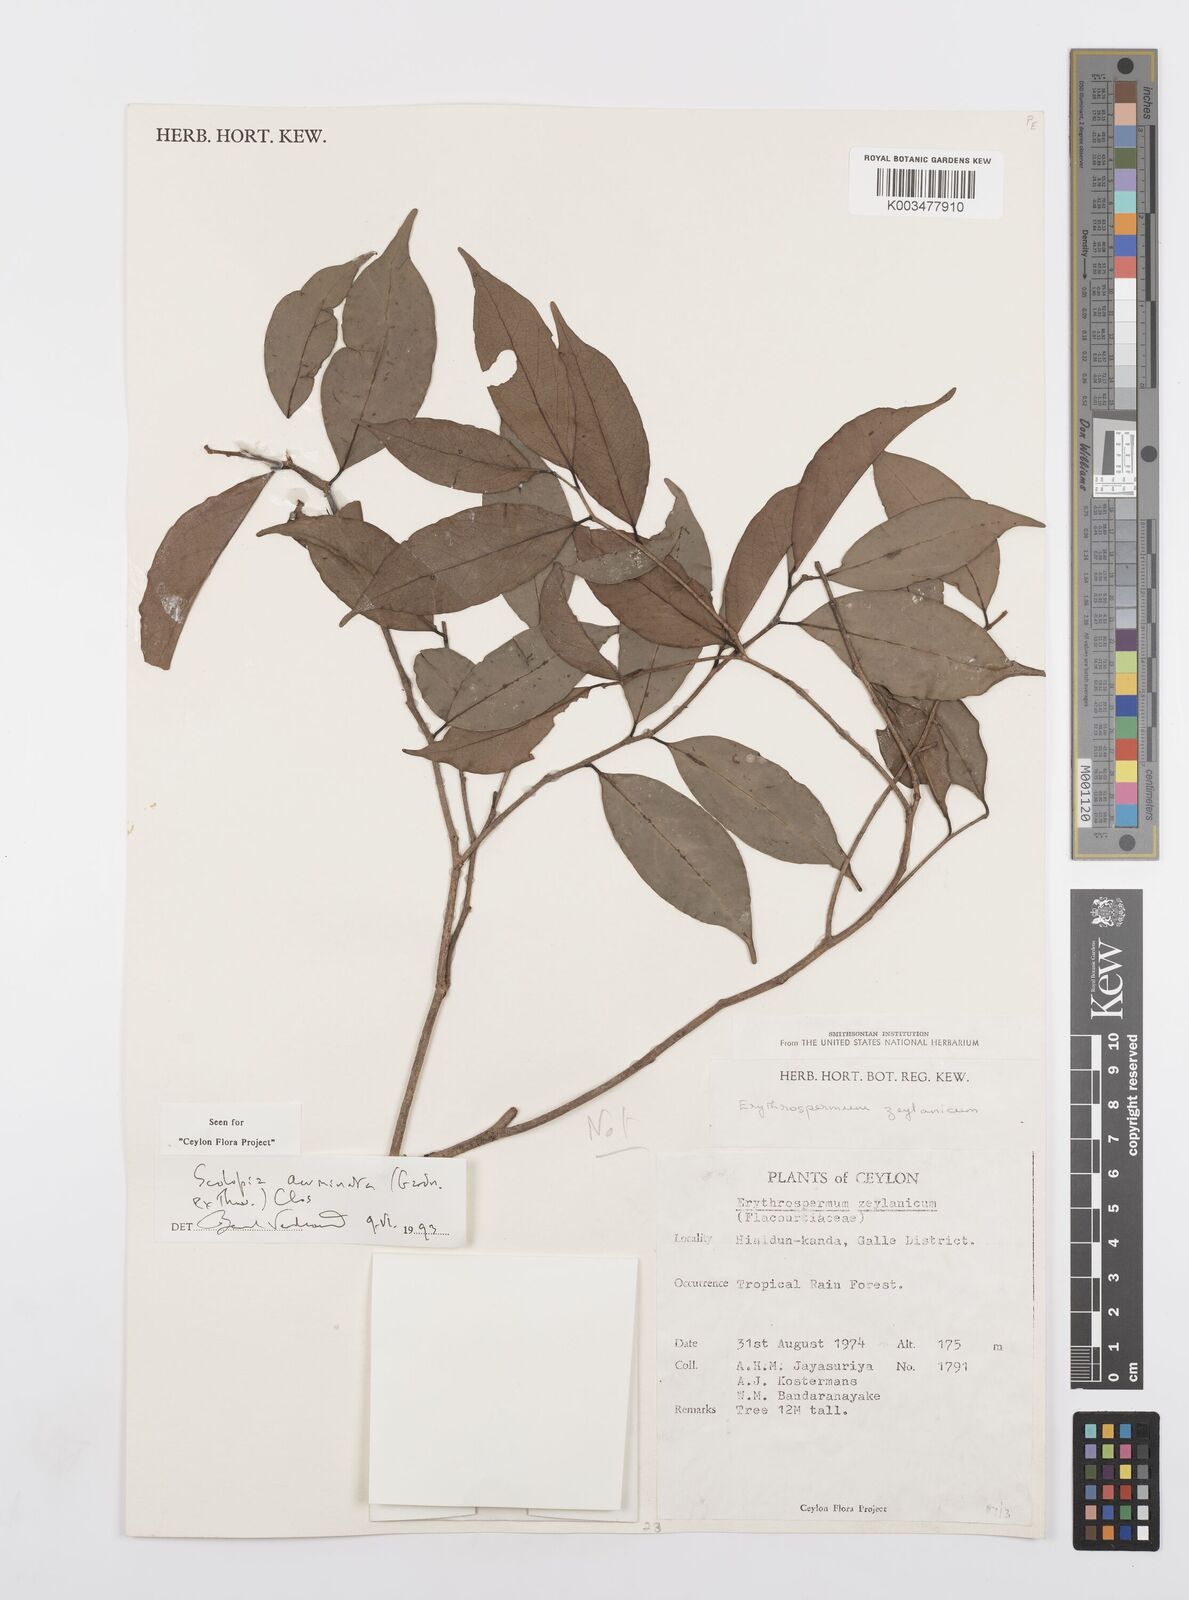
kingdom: Plantae
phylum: Tracheophyta
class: Magnoliopsida
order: Malpighiales
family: Salicaceae
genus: Scolopia
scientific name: Scolopia acuminata
